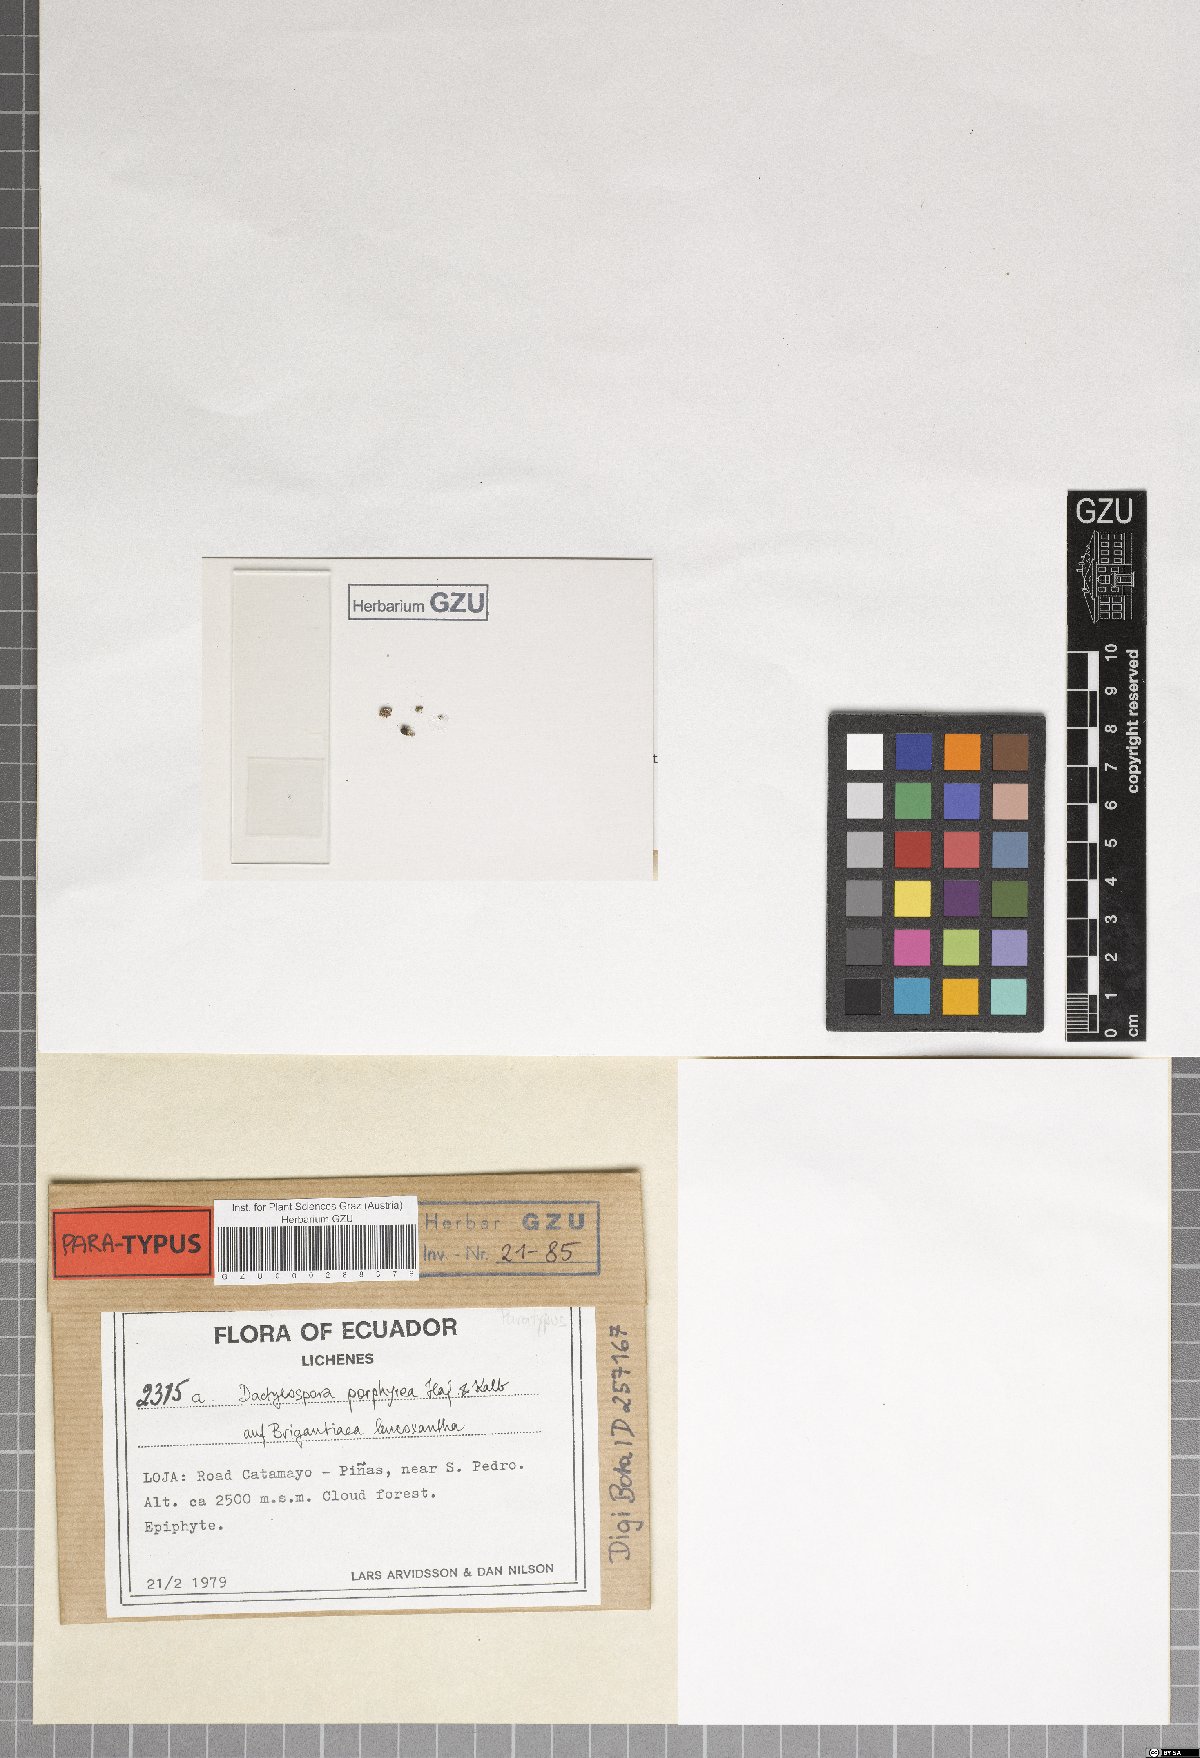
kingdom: Fungi
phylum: Ascomycota
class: Eurotiomycetes
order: Sclerococcales
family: Sclerococcaceae
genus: Sclerococcum
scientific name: Sclerococcum porphyreum
